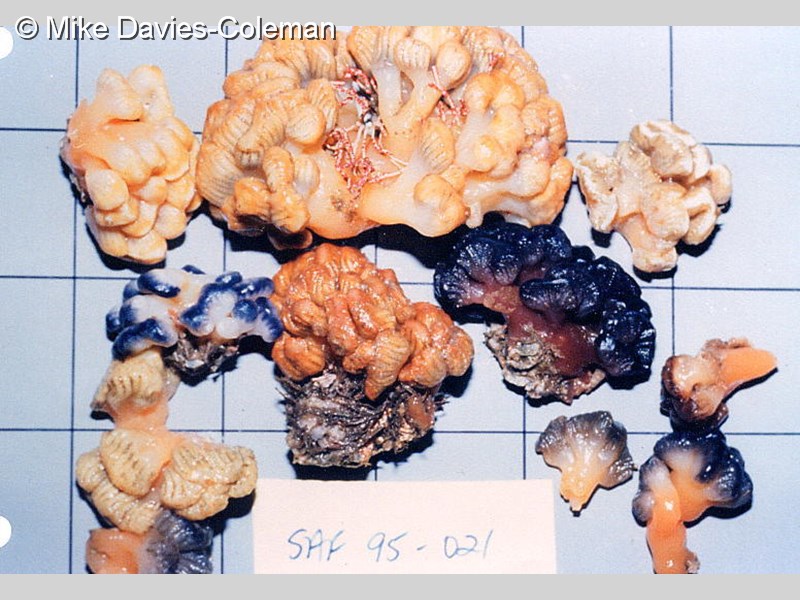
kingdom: Animalia
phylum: Chordata
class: Ascidiacea
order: Aplousobranchia
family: Holozoidae
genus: Sycozoa
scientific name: Sycozoa arborescens
